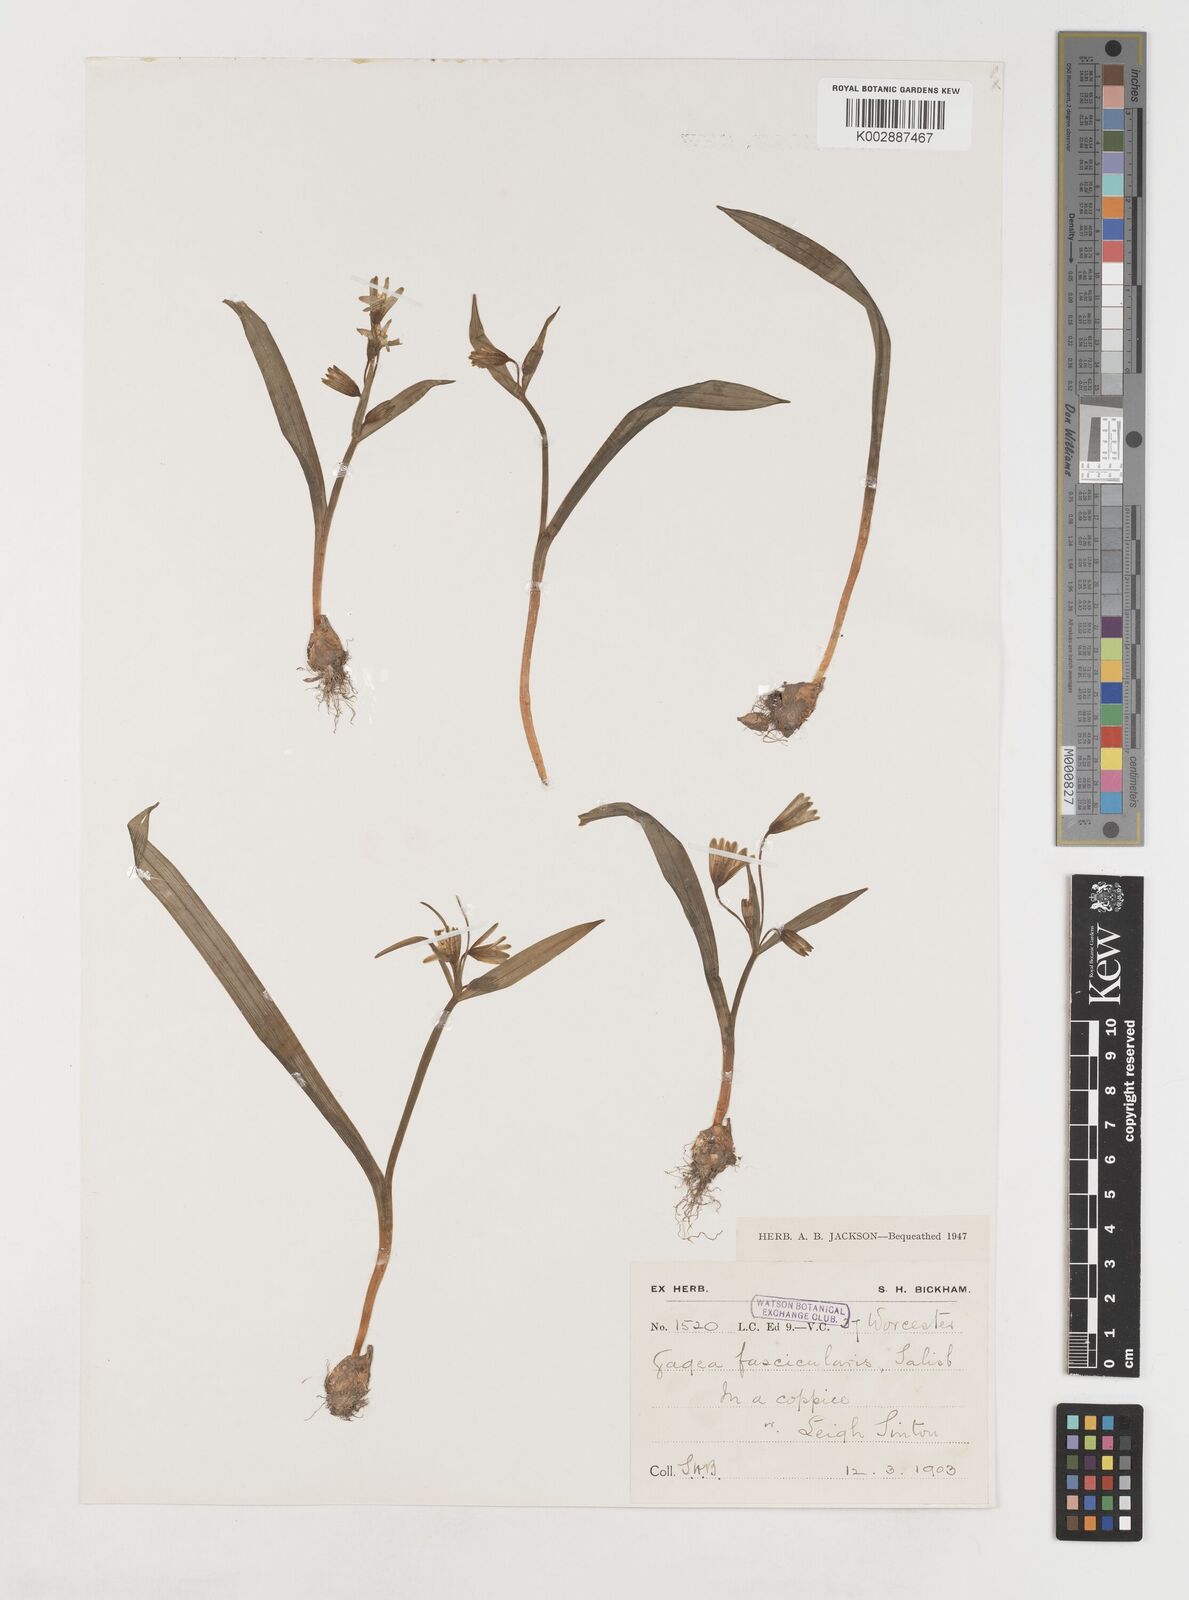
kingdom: Plantae
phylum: Tracheophyta
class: Liliopsida
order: Liliales
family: Liliaceae
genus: Gagea
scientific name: Gagea lutea
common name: Yellow star-of-bethlehem
